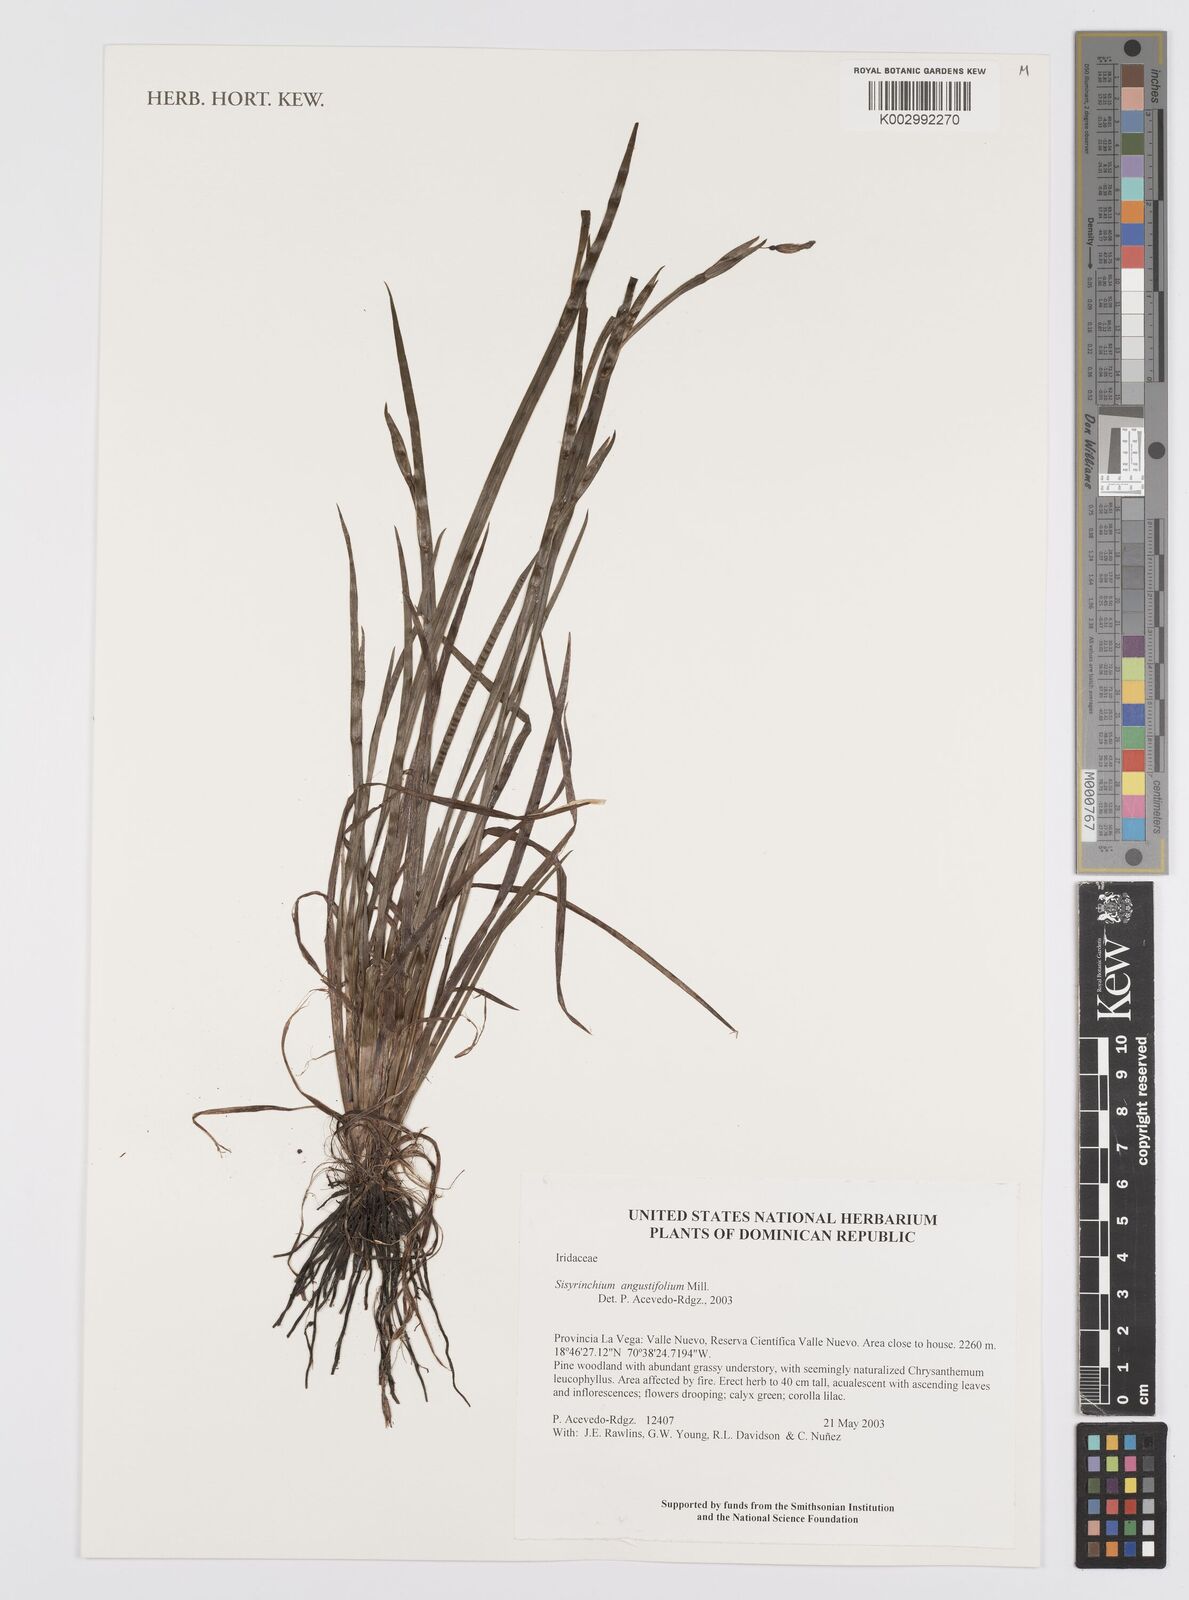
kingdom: Plantae
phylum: Tracheophyta
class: Liliopsida
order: Asparagales
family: Iridaceae
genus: Sisyrinchium
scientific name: Sisyrinchium
